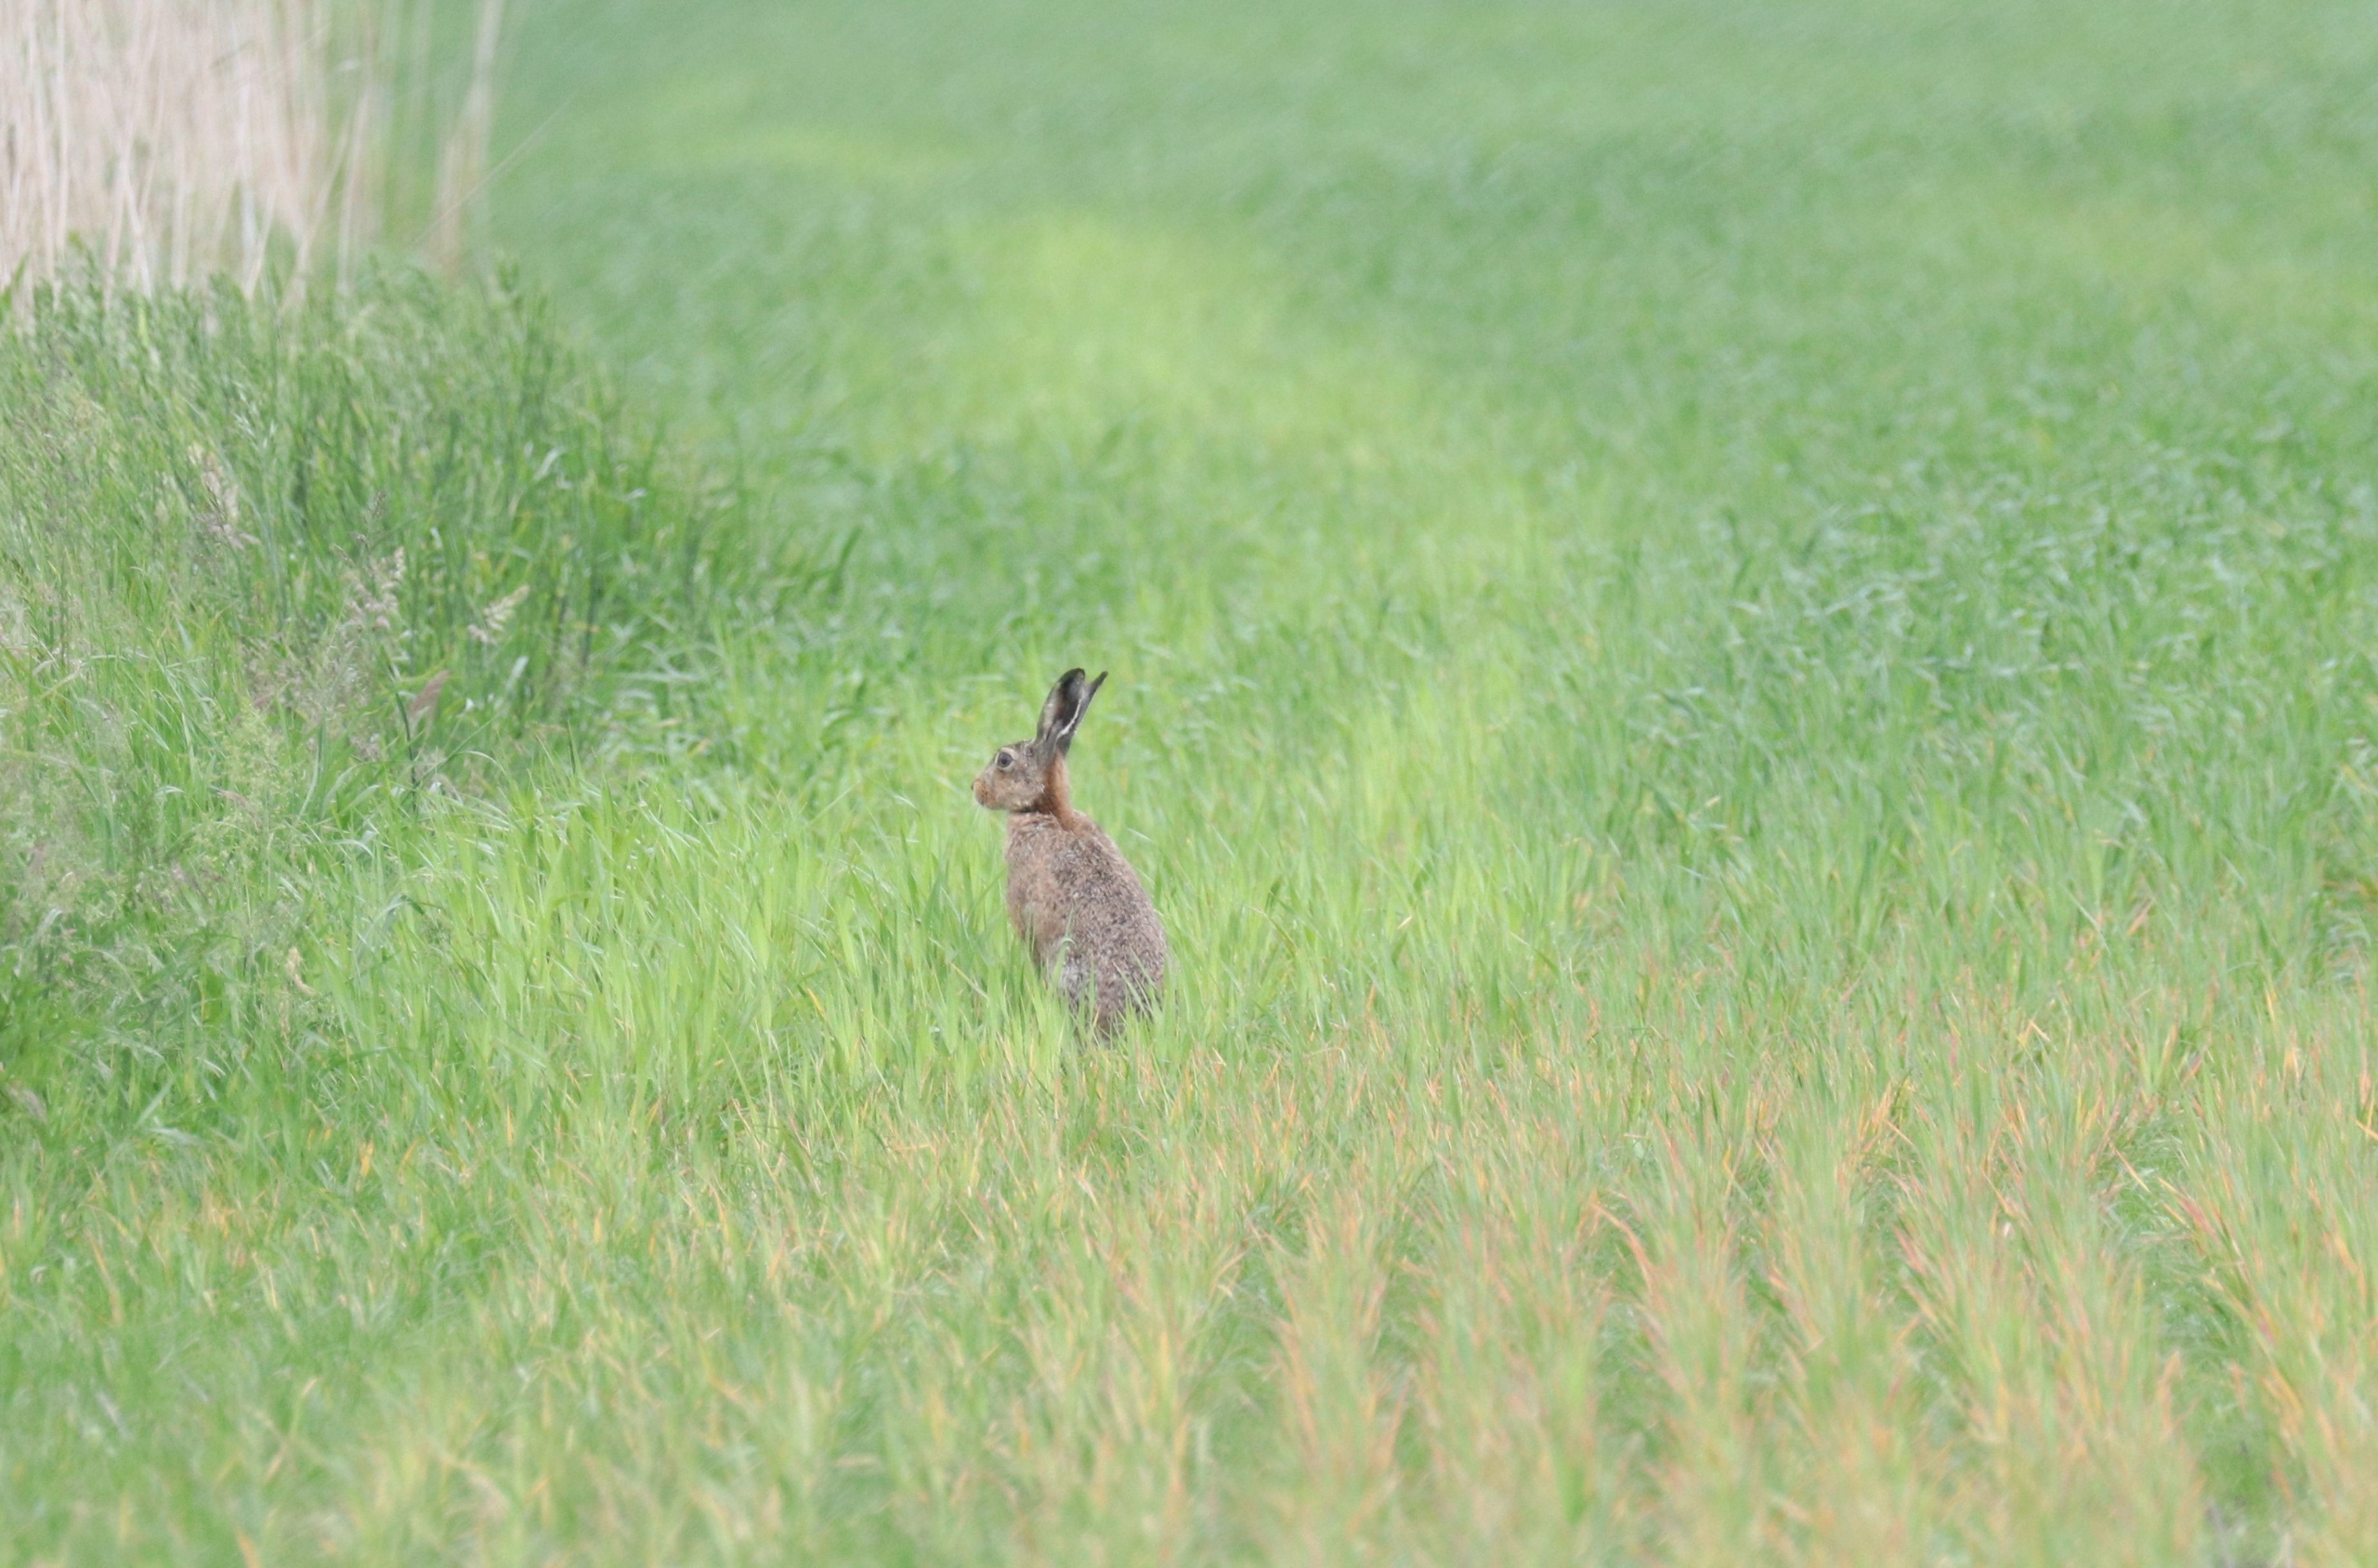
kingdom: Animalia
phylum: Chordata
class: Mammalia
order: Lagomorpha
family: Leporidae
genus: Lepus
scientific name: Lepus europaeus
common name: Hare
